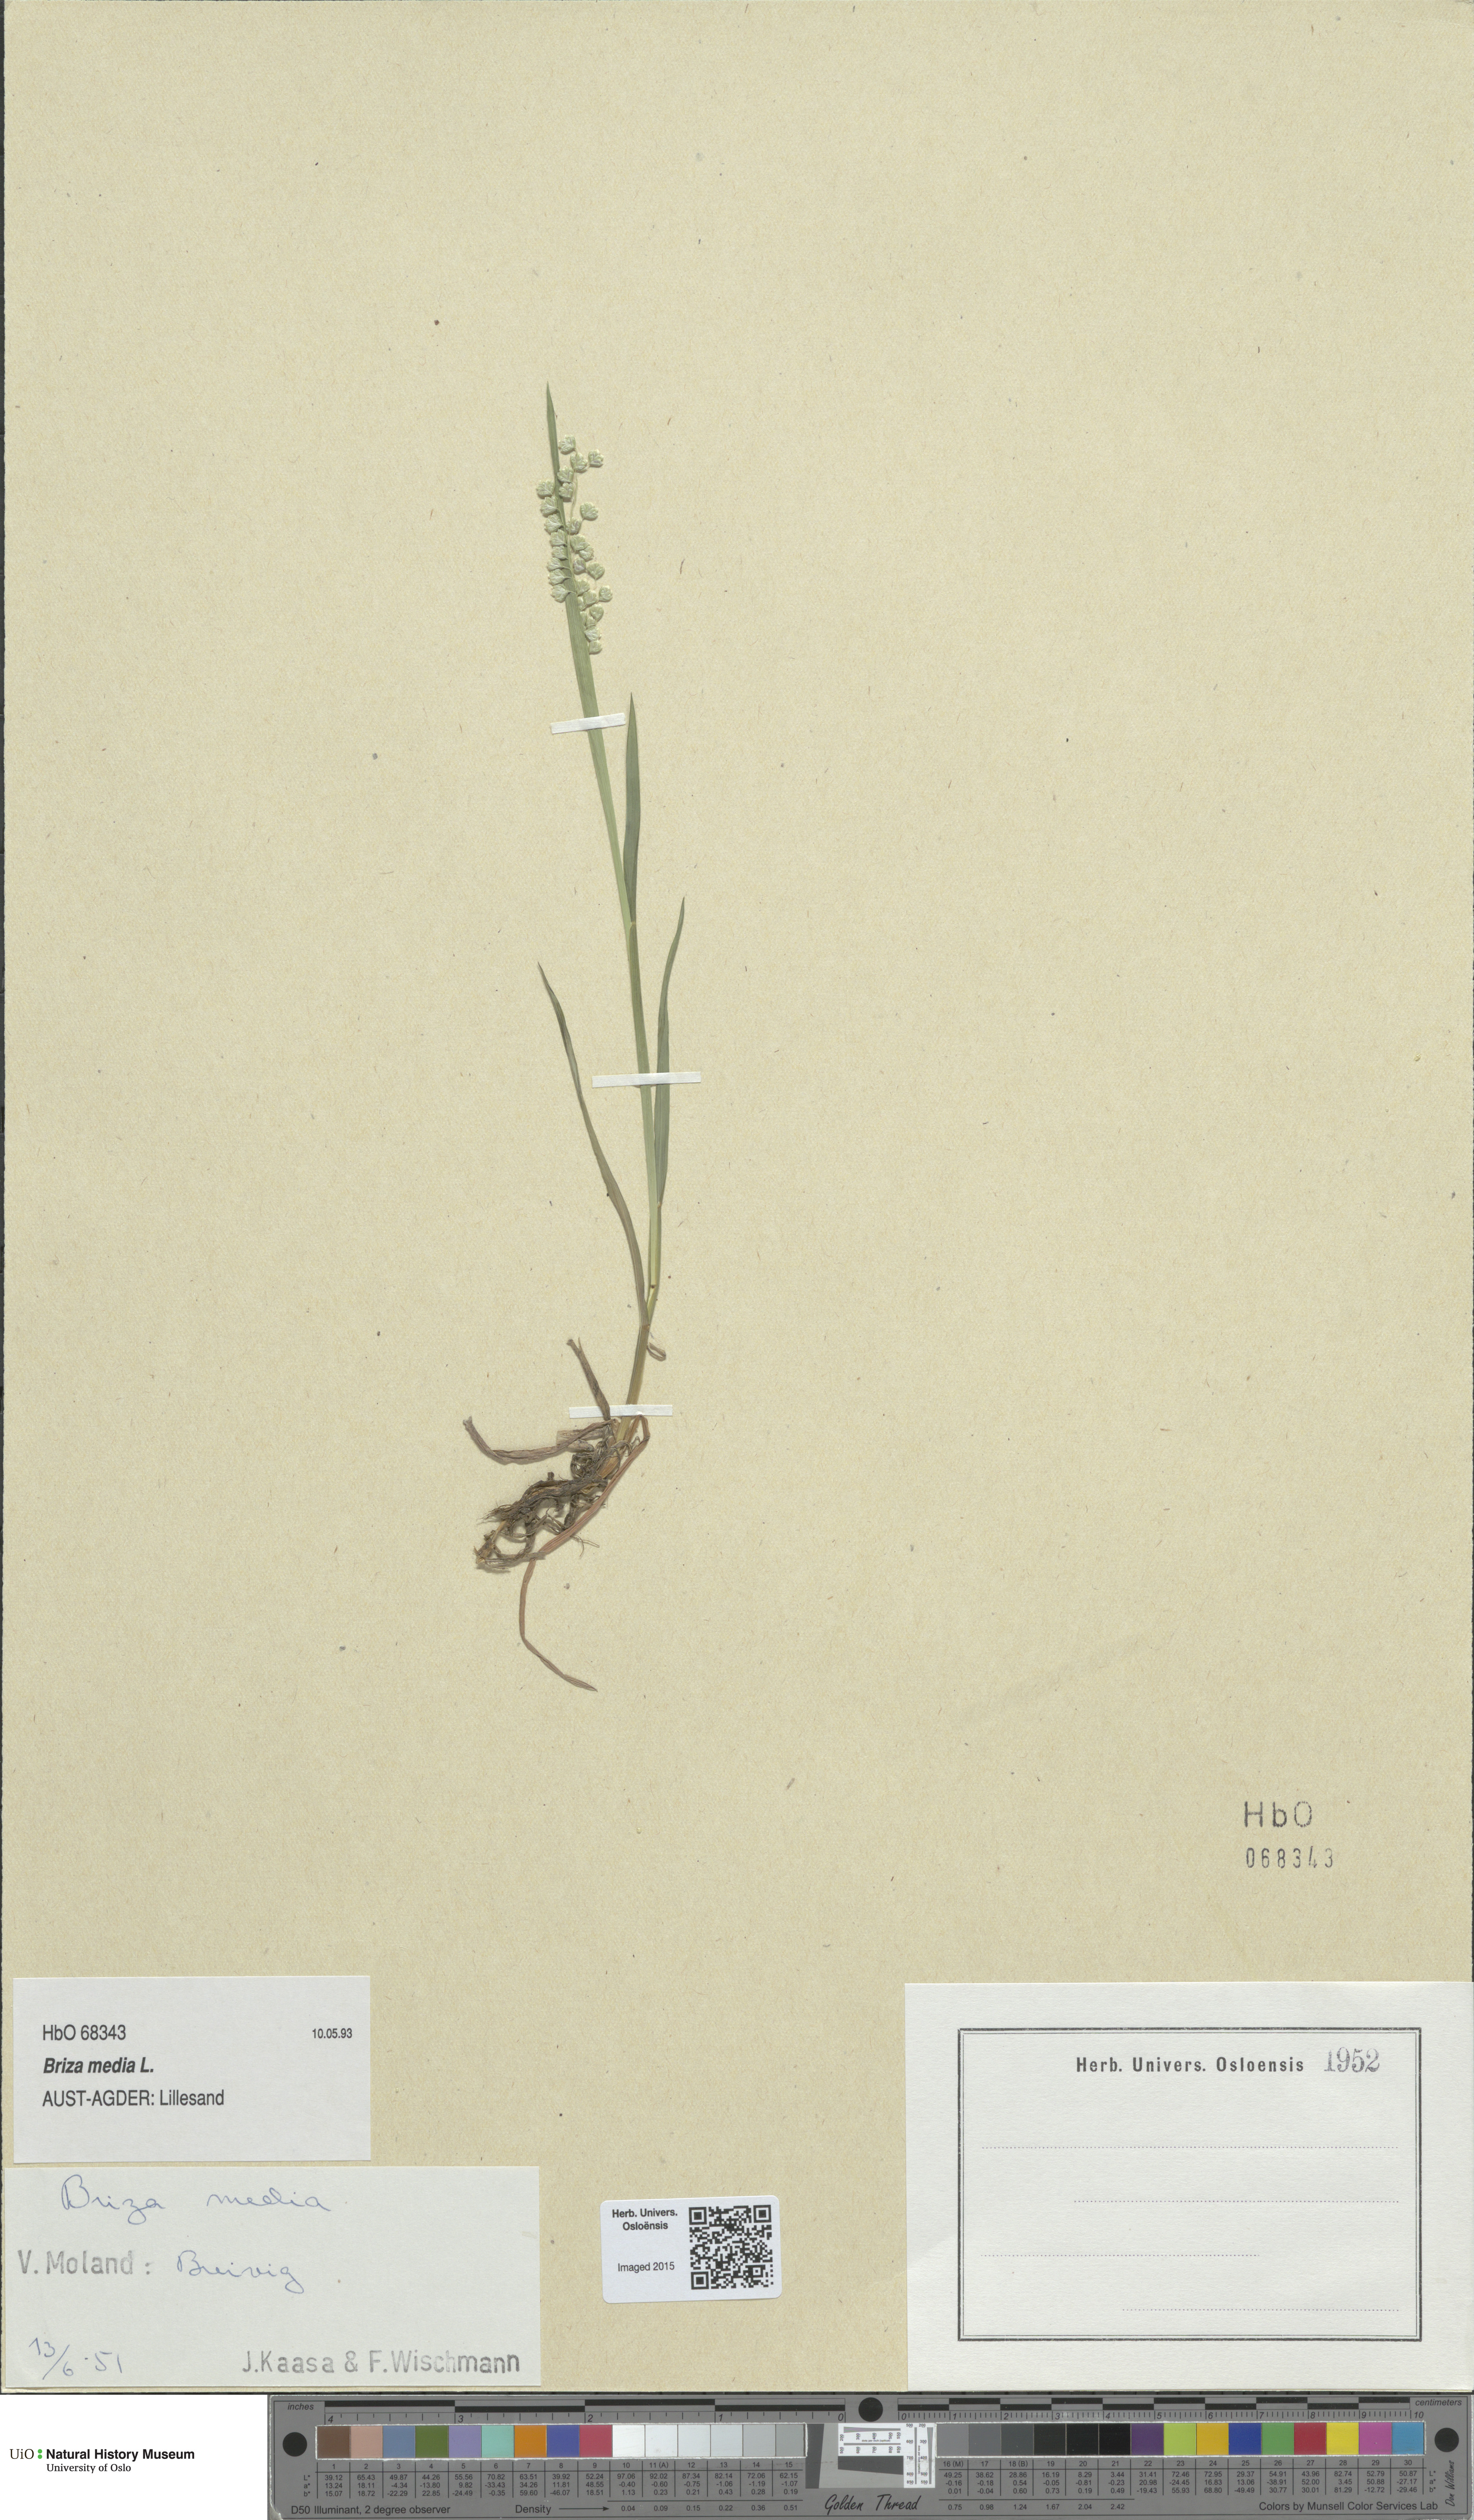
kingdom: Plantae
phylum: Tracheophyta
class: Liliopsida
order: Poales
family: Poaceae
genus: Briza
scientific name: Briza media
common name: Quaking grass
